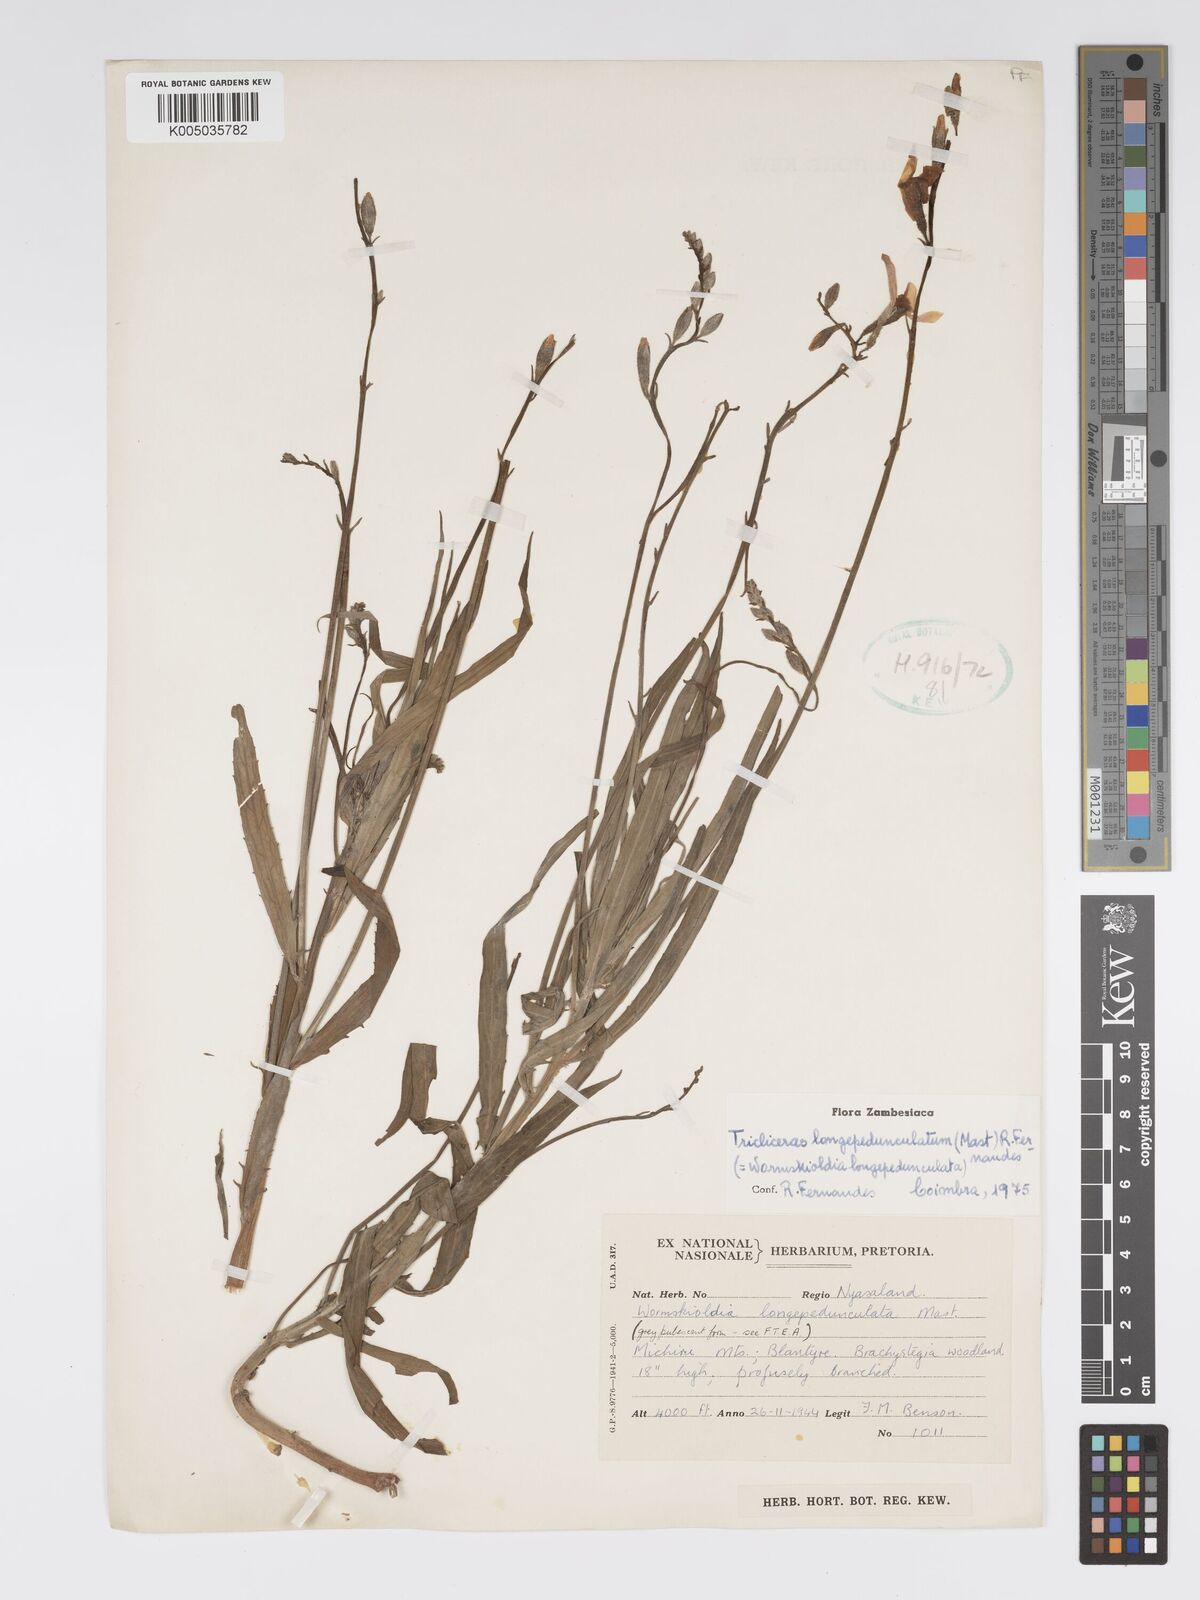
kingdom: Plantae
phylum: Tracheophyta
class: Magnoliopsida
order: Malpighiales
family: Turneraceae
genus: Tricliceras
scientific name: Tricliceras longepedunculatum
